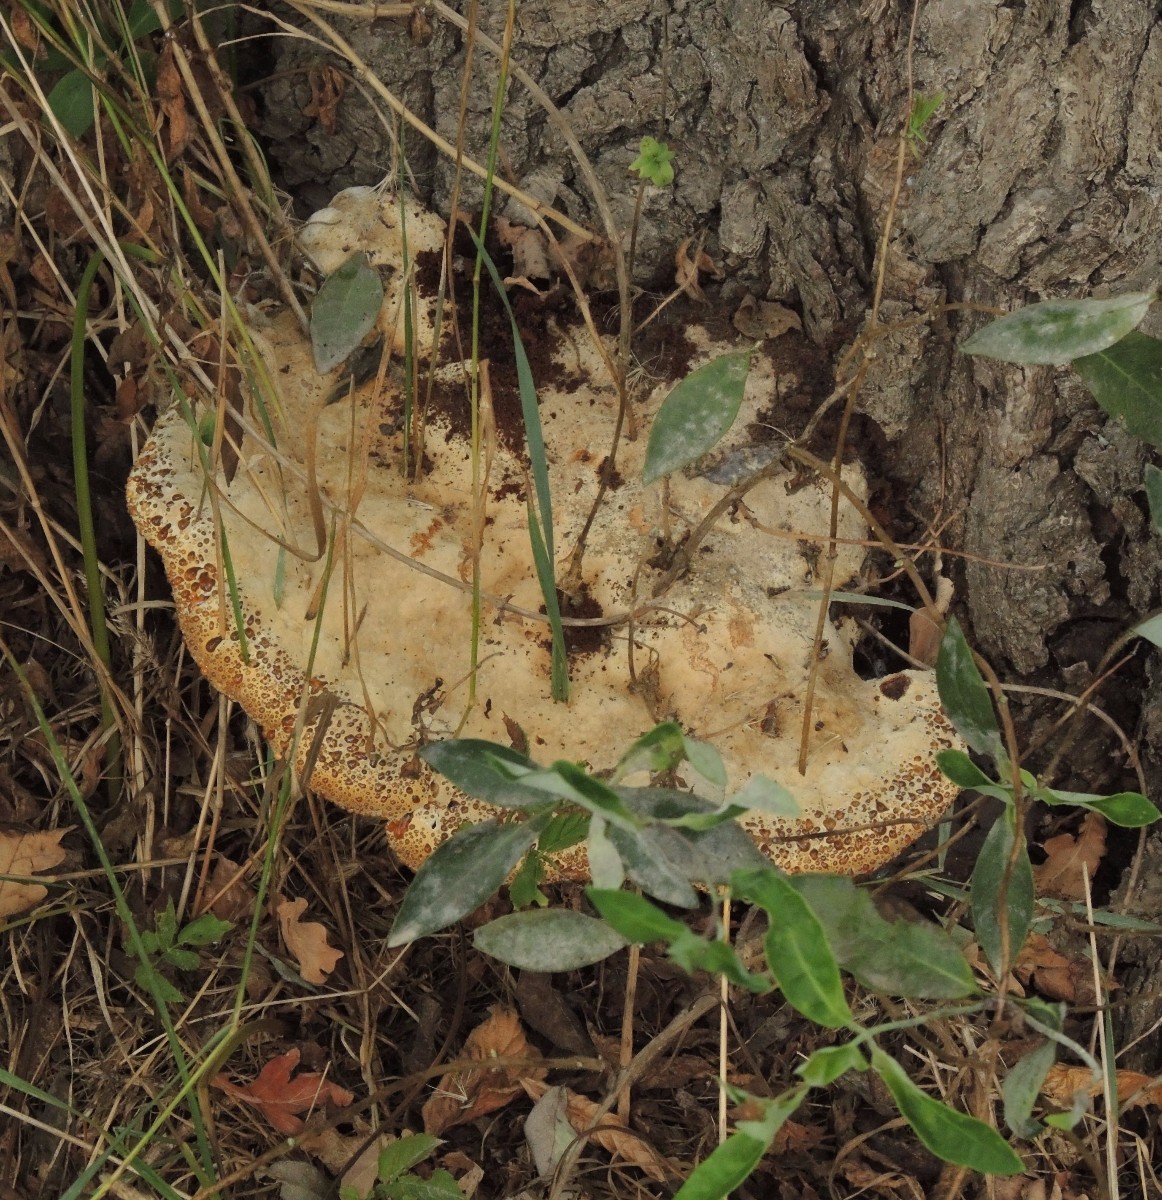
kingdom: Fungi
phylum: Basidiomycota
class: Agaricomycetes
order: Hymenochaetales
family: Hymenochaetaceae
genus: Pseudoinonotus
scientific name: Pseudoinonotus dryadeus
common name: ege-spejlporesvamp
